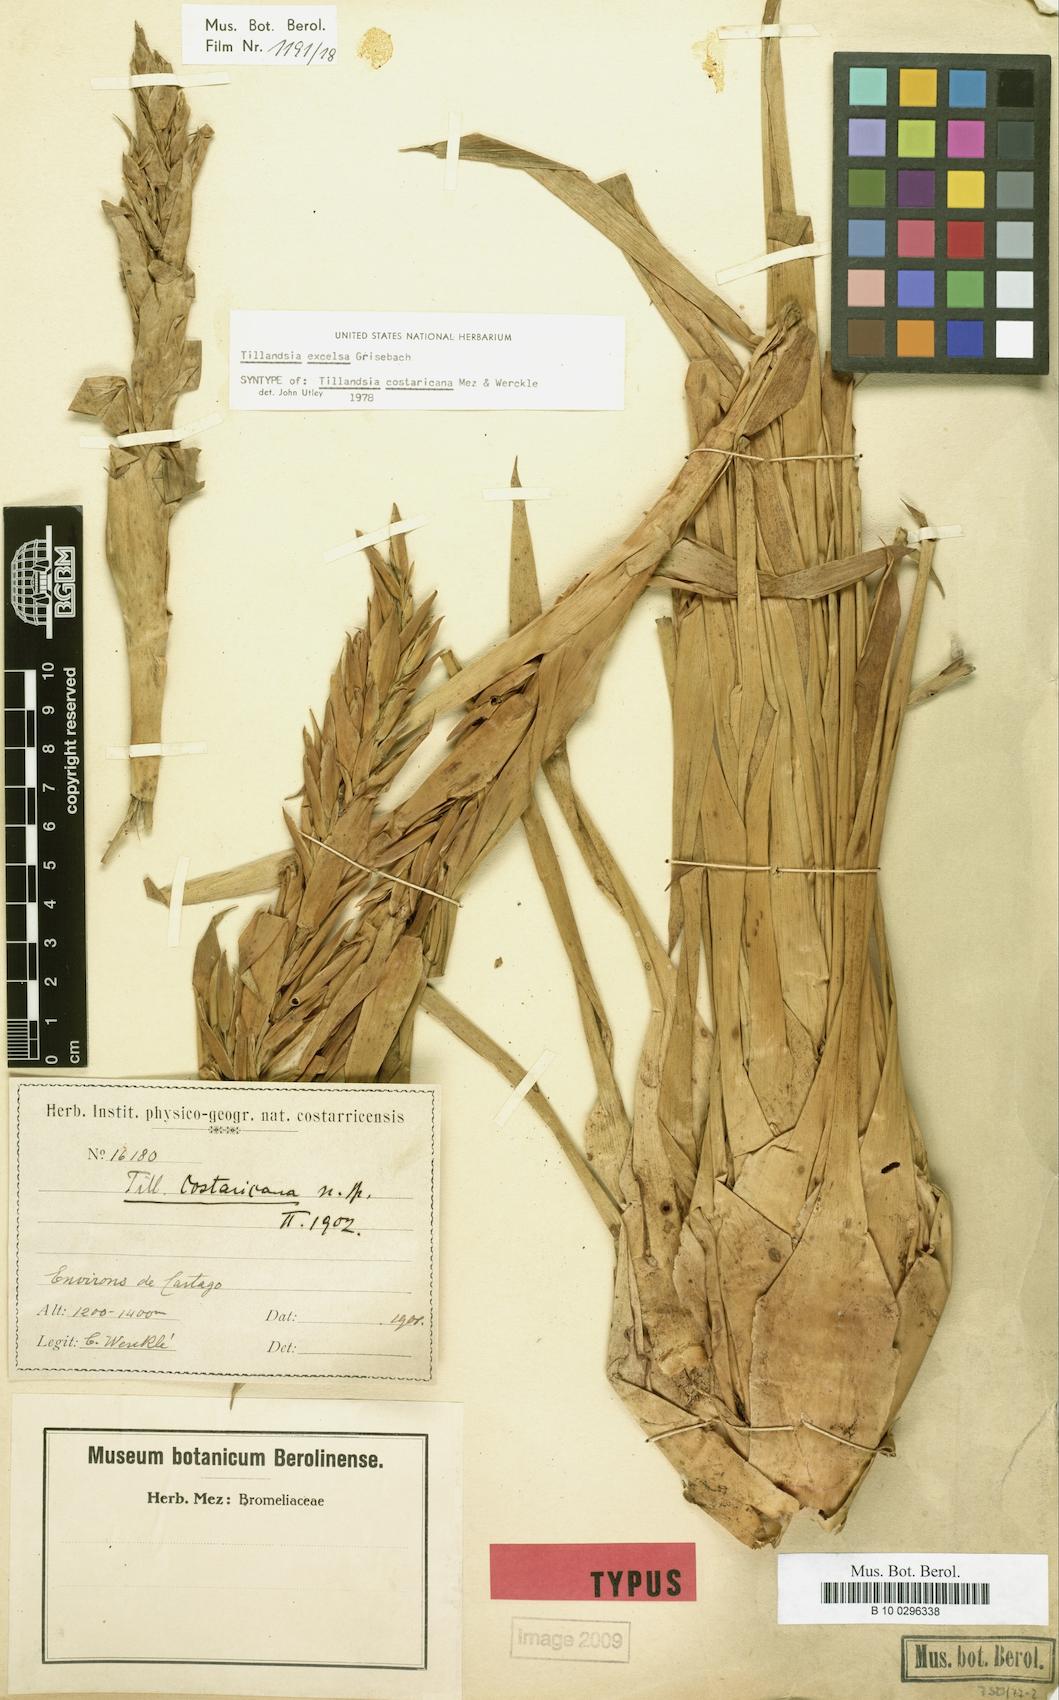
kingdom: Plantae
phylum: Tracheophyta
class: Liliopsida
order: Poales
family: Bromeliaceae
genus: Tillandsia
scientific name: Tillandsia excelsa
